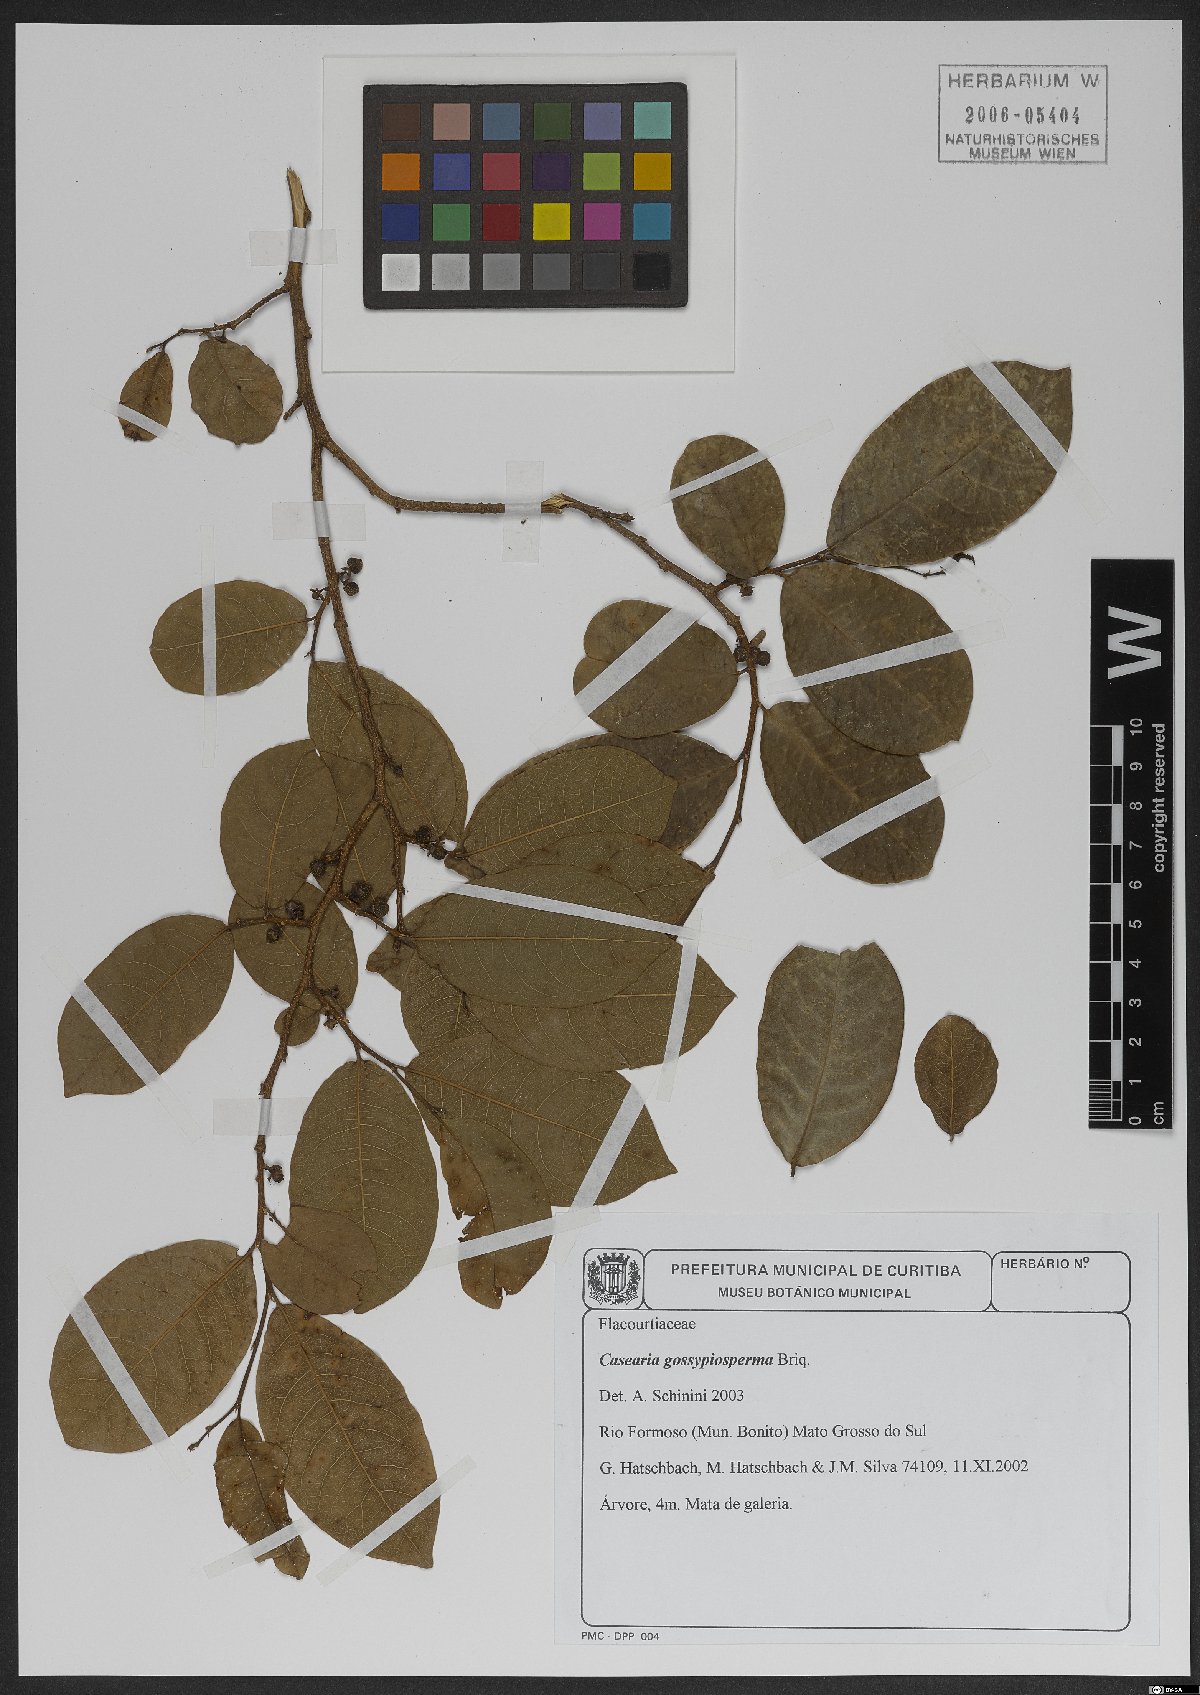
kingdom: Plantae
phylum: Tracheophyta
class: Magnoliopsida
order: Malpighiales
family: Salicaceae
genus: Casearia
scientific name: Casearia gossypiosperma
